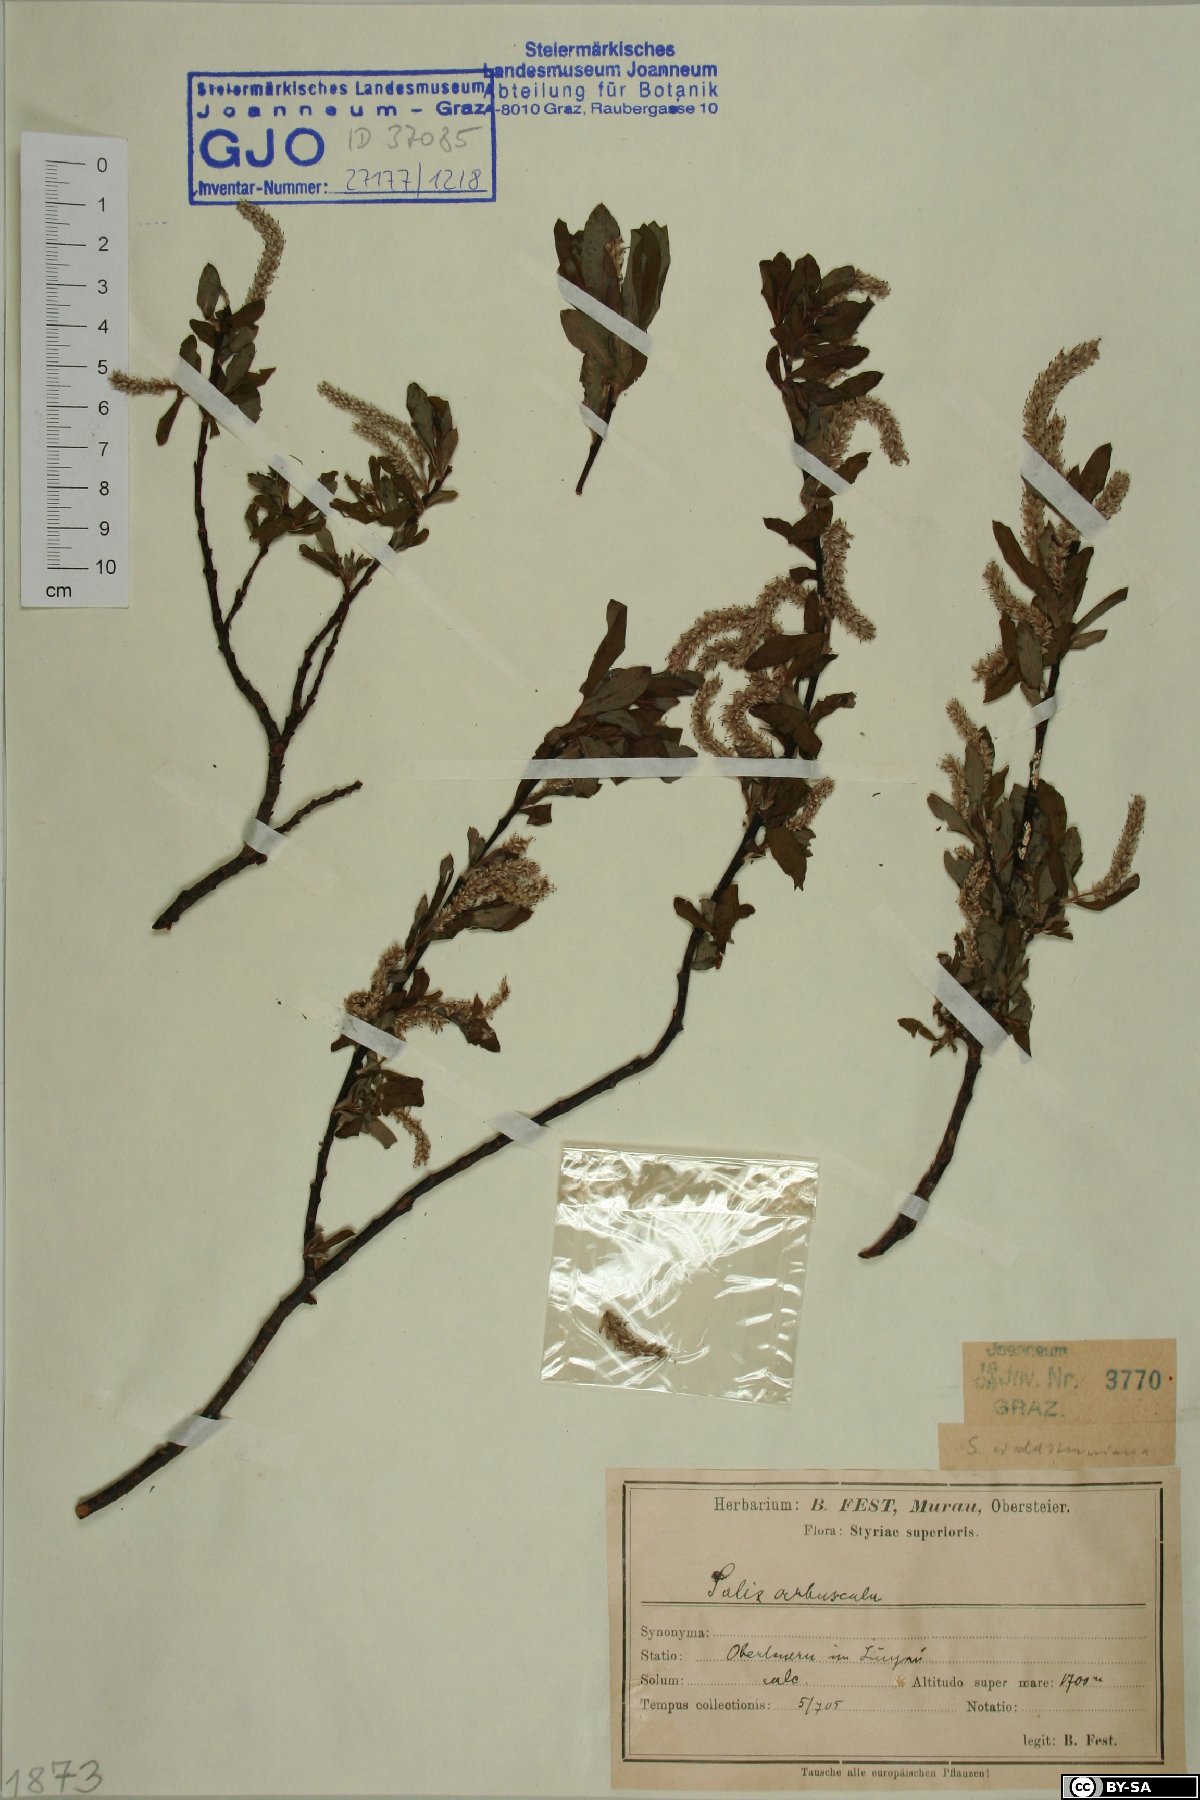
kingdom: Plantae
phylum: Tracheophyta
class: Magnoliopsida
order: Malpighiales
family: Salicaceae
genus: Salix
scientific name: Salix waldsteiniana
